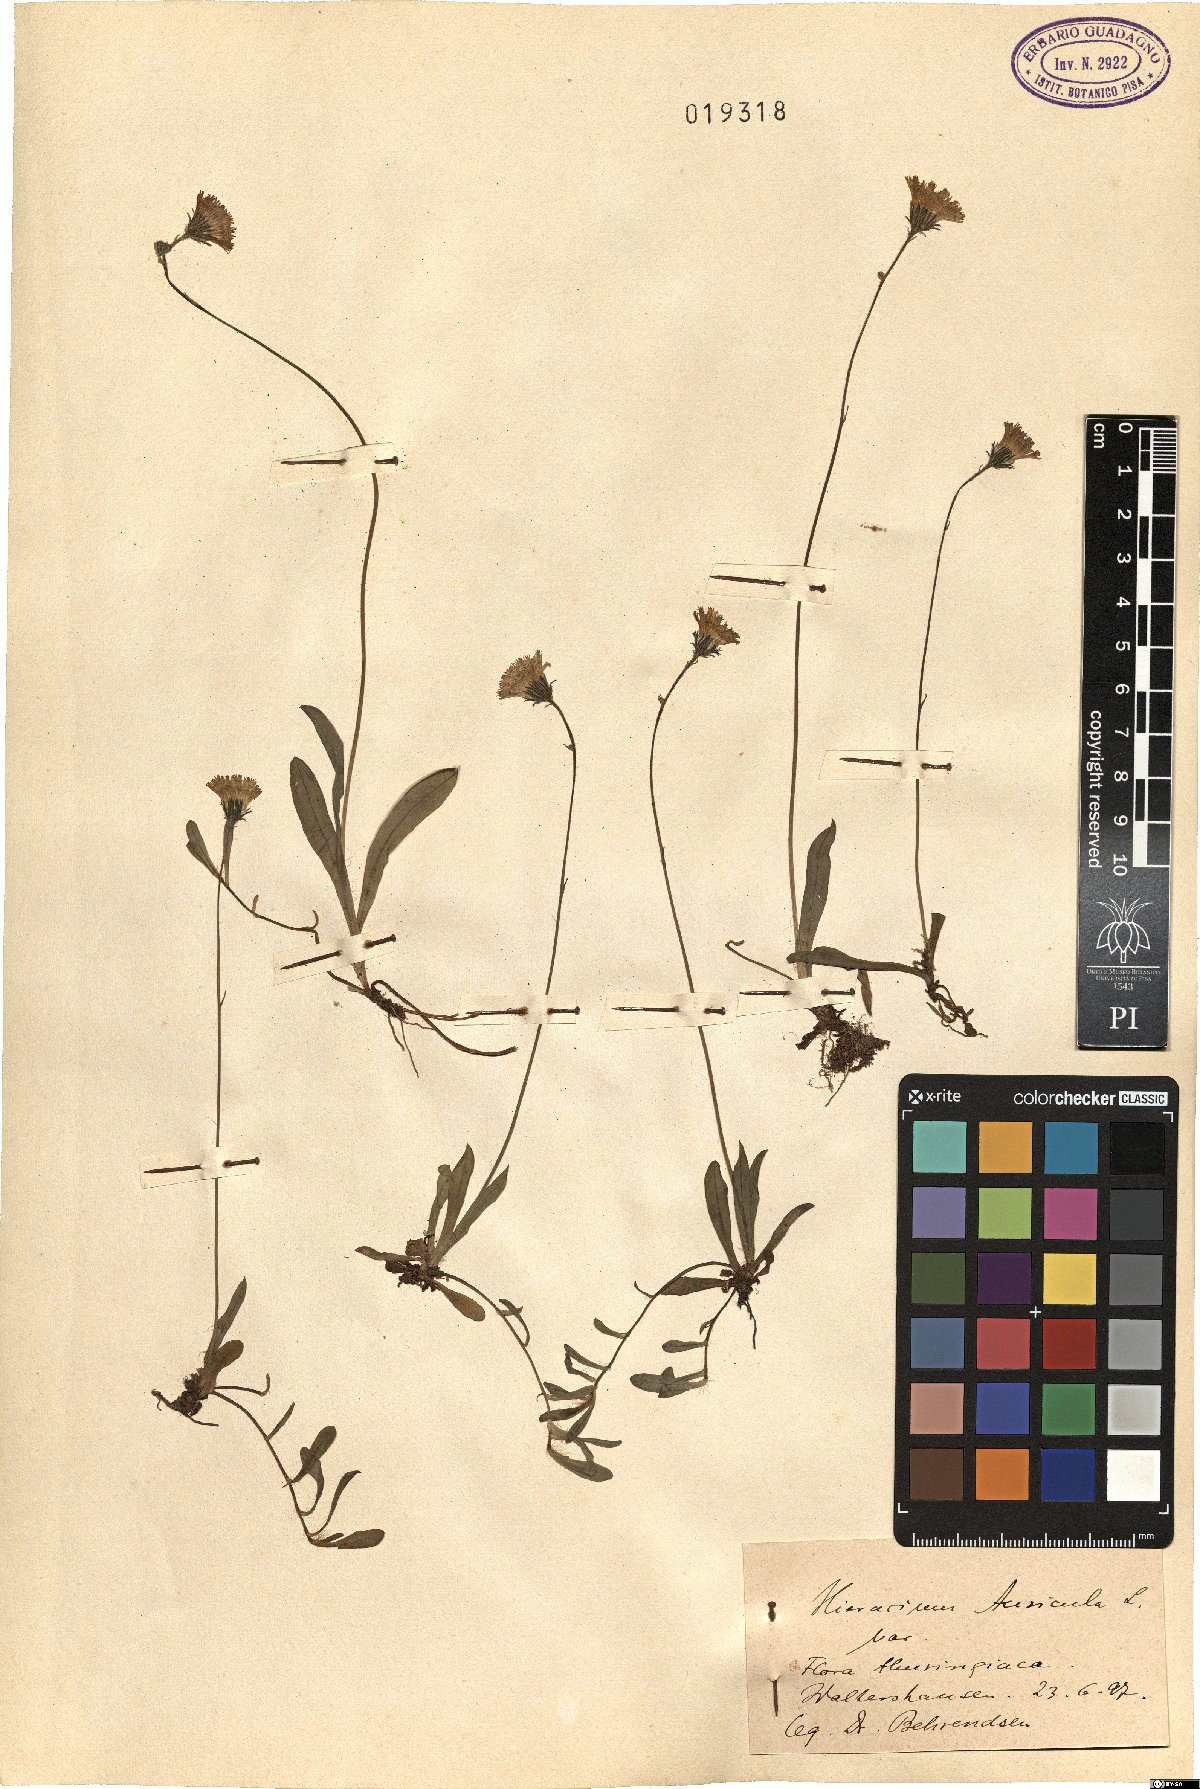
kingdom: Plantae
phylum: Tracheophyta
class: Magnoliopsida
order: Asterales
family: Asteraceae
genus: Pilosella
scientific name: Pilosella floribunda
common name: Glaucous hawkweed
